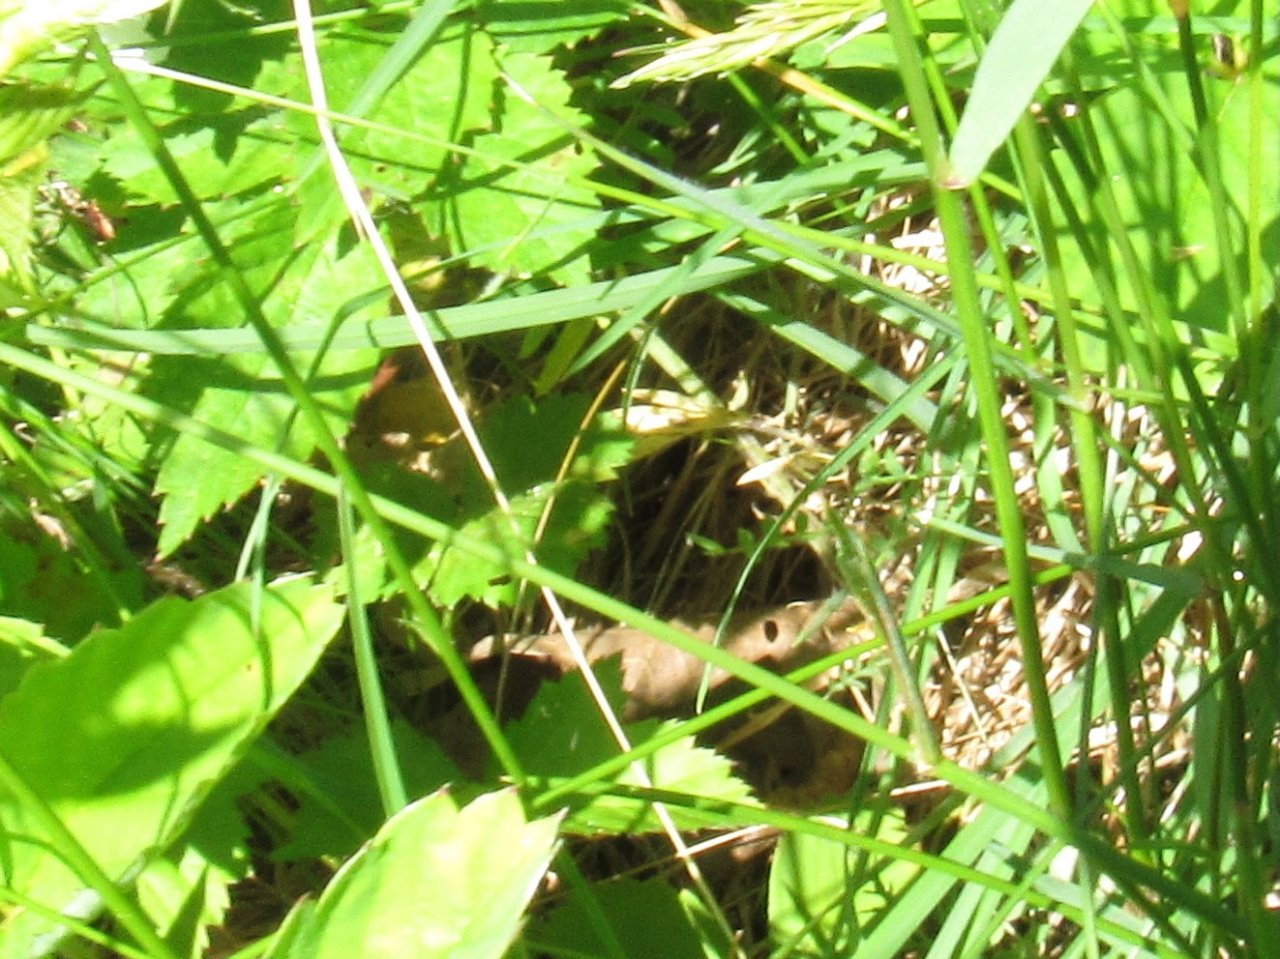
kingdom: Animalia
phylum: Arthropoda
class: Insecta
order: Lepidoptera
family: Nymphalidae
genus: Euptychia
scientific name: Euptychia cymela
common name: Little Wood Satyr
